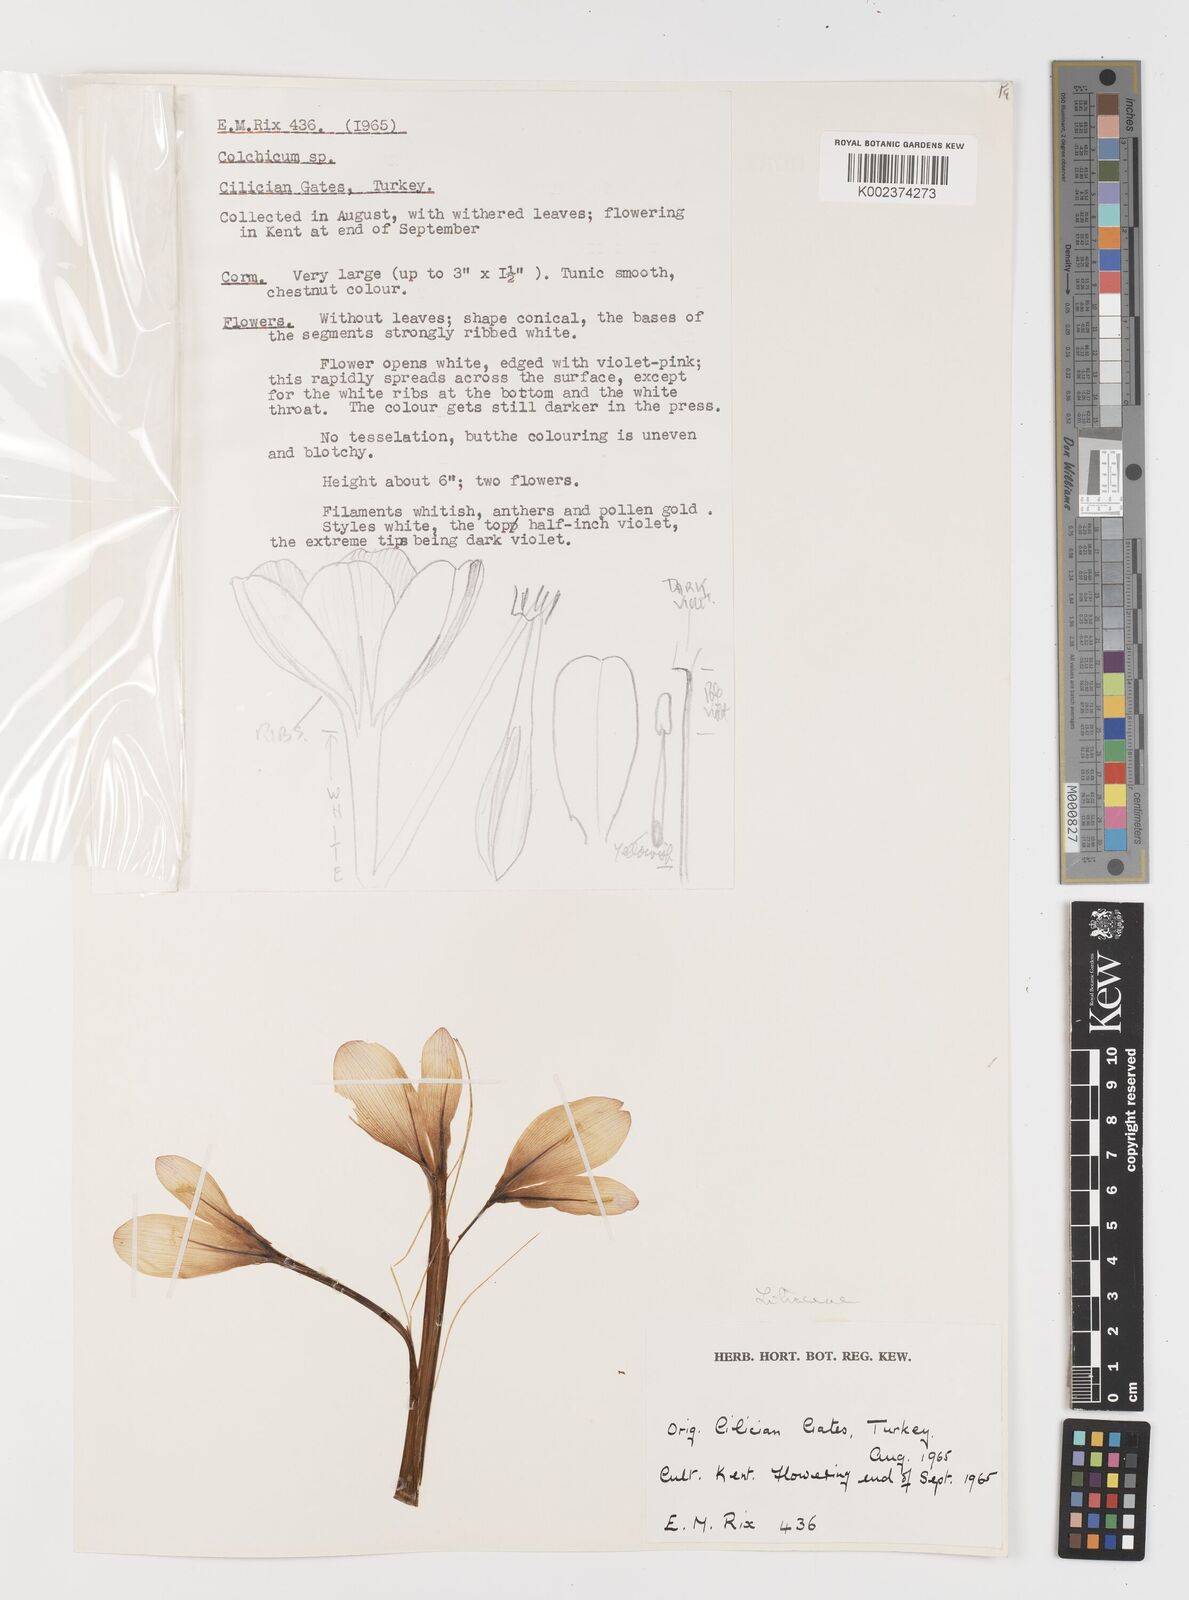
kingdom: Plantae
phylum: Tracheophyta
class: Liliopsida
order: Liliales
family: Colchicaceae
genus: Colchicum
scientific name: Colchicum
